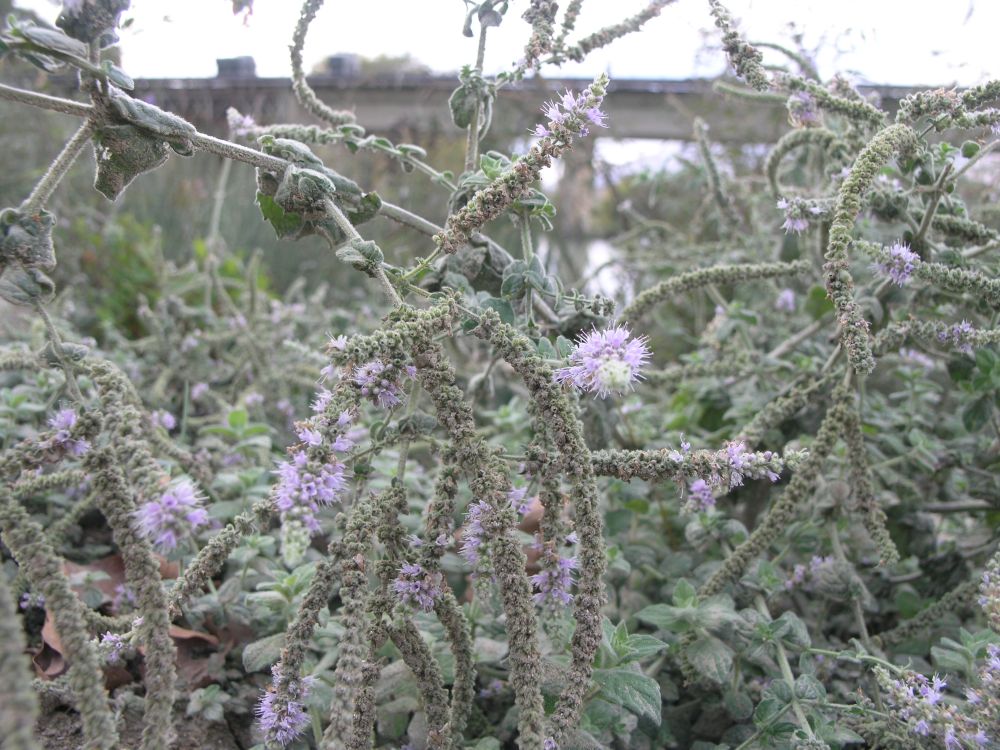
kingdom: Plantae
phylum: Tracheophyta
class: Magnoliopsida
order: Lamiales
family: Lamiaceae
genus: Mentha
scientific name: Mentha pulegium
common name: Pennyroyal
